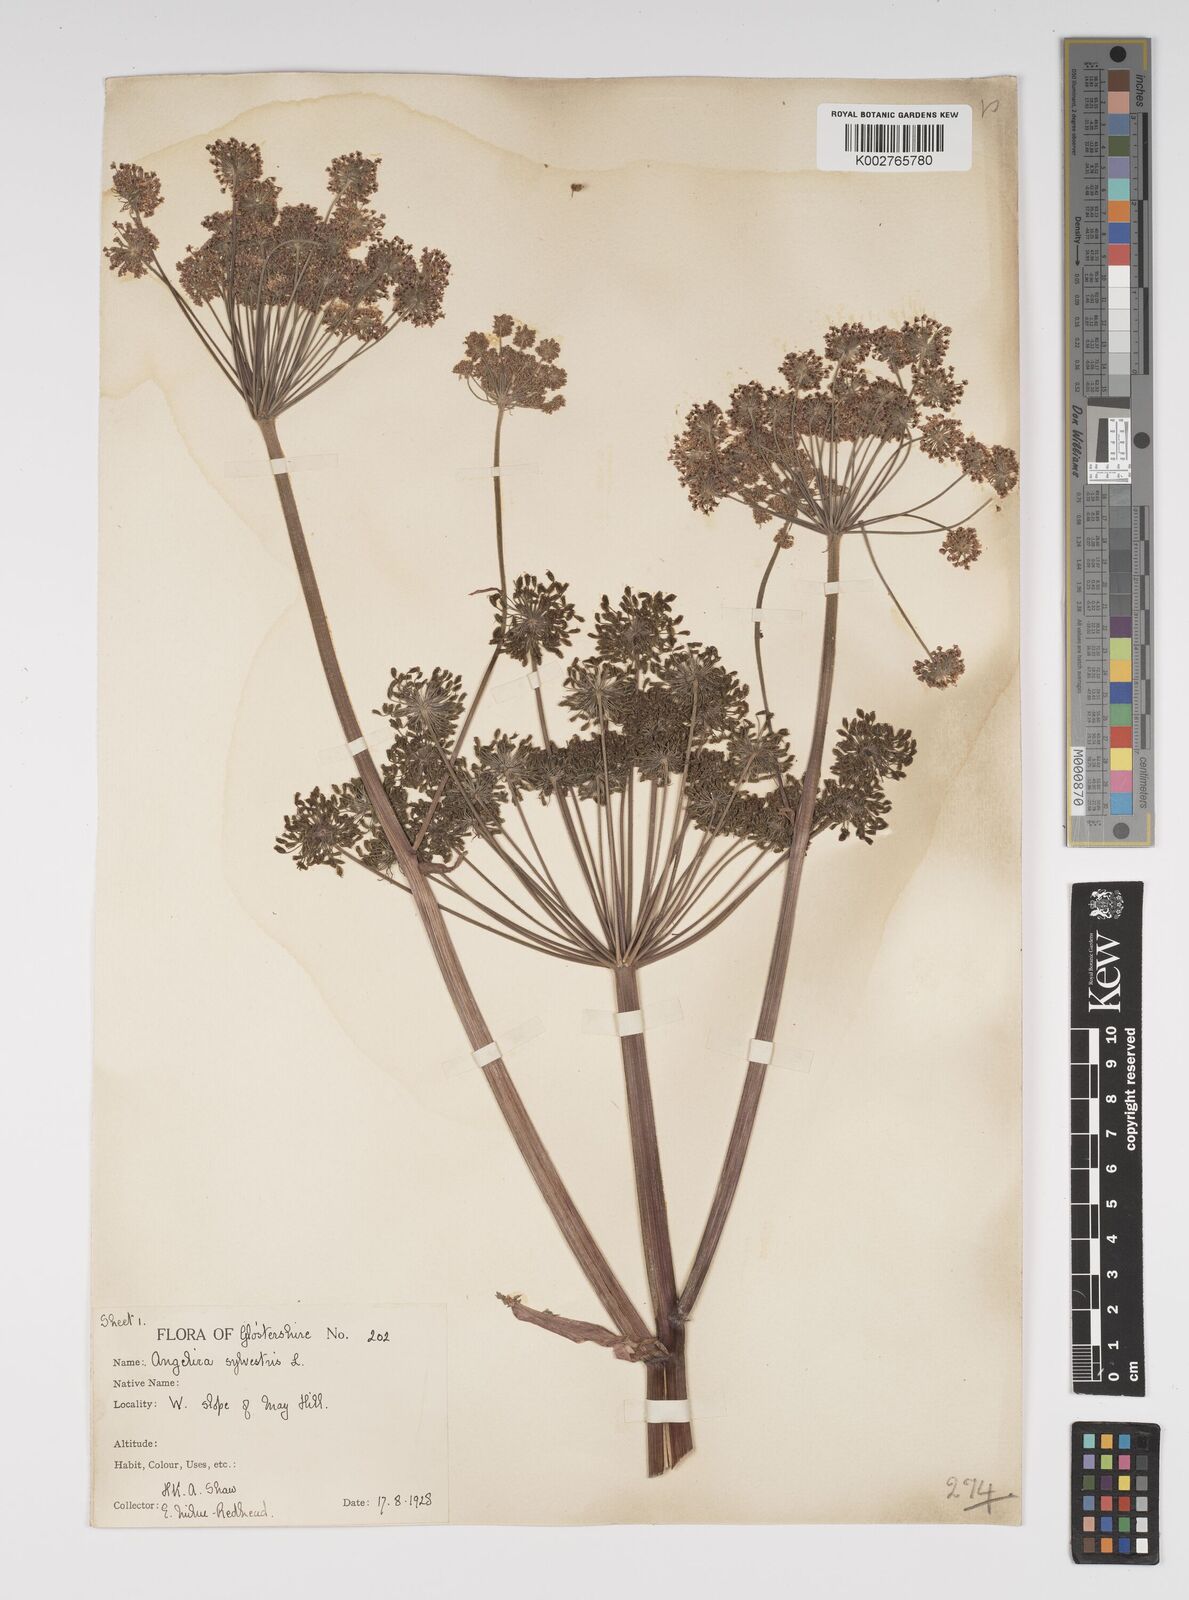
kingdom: Plantae
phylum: Tracheophyta
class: Magnoliopsida
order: Apiales
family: Apiaceae
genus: Angelica
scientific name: Angelica sylvestris
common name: Wild angelica
